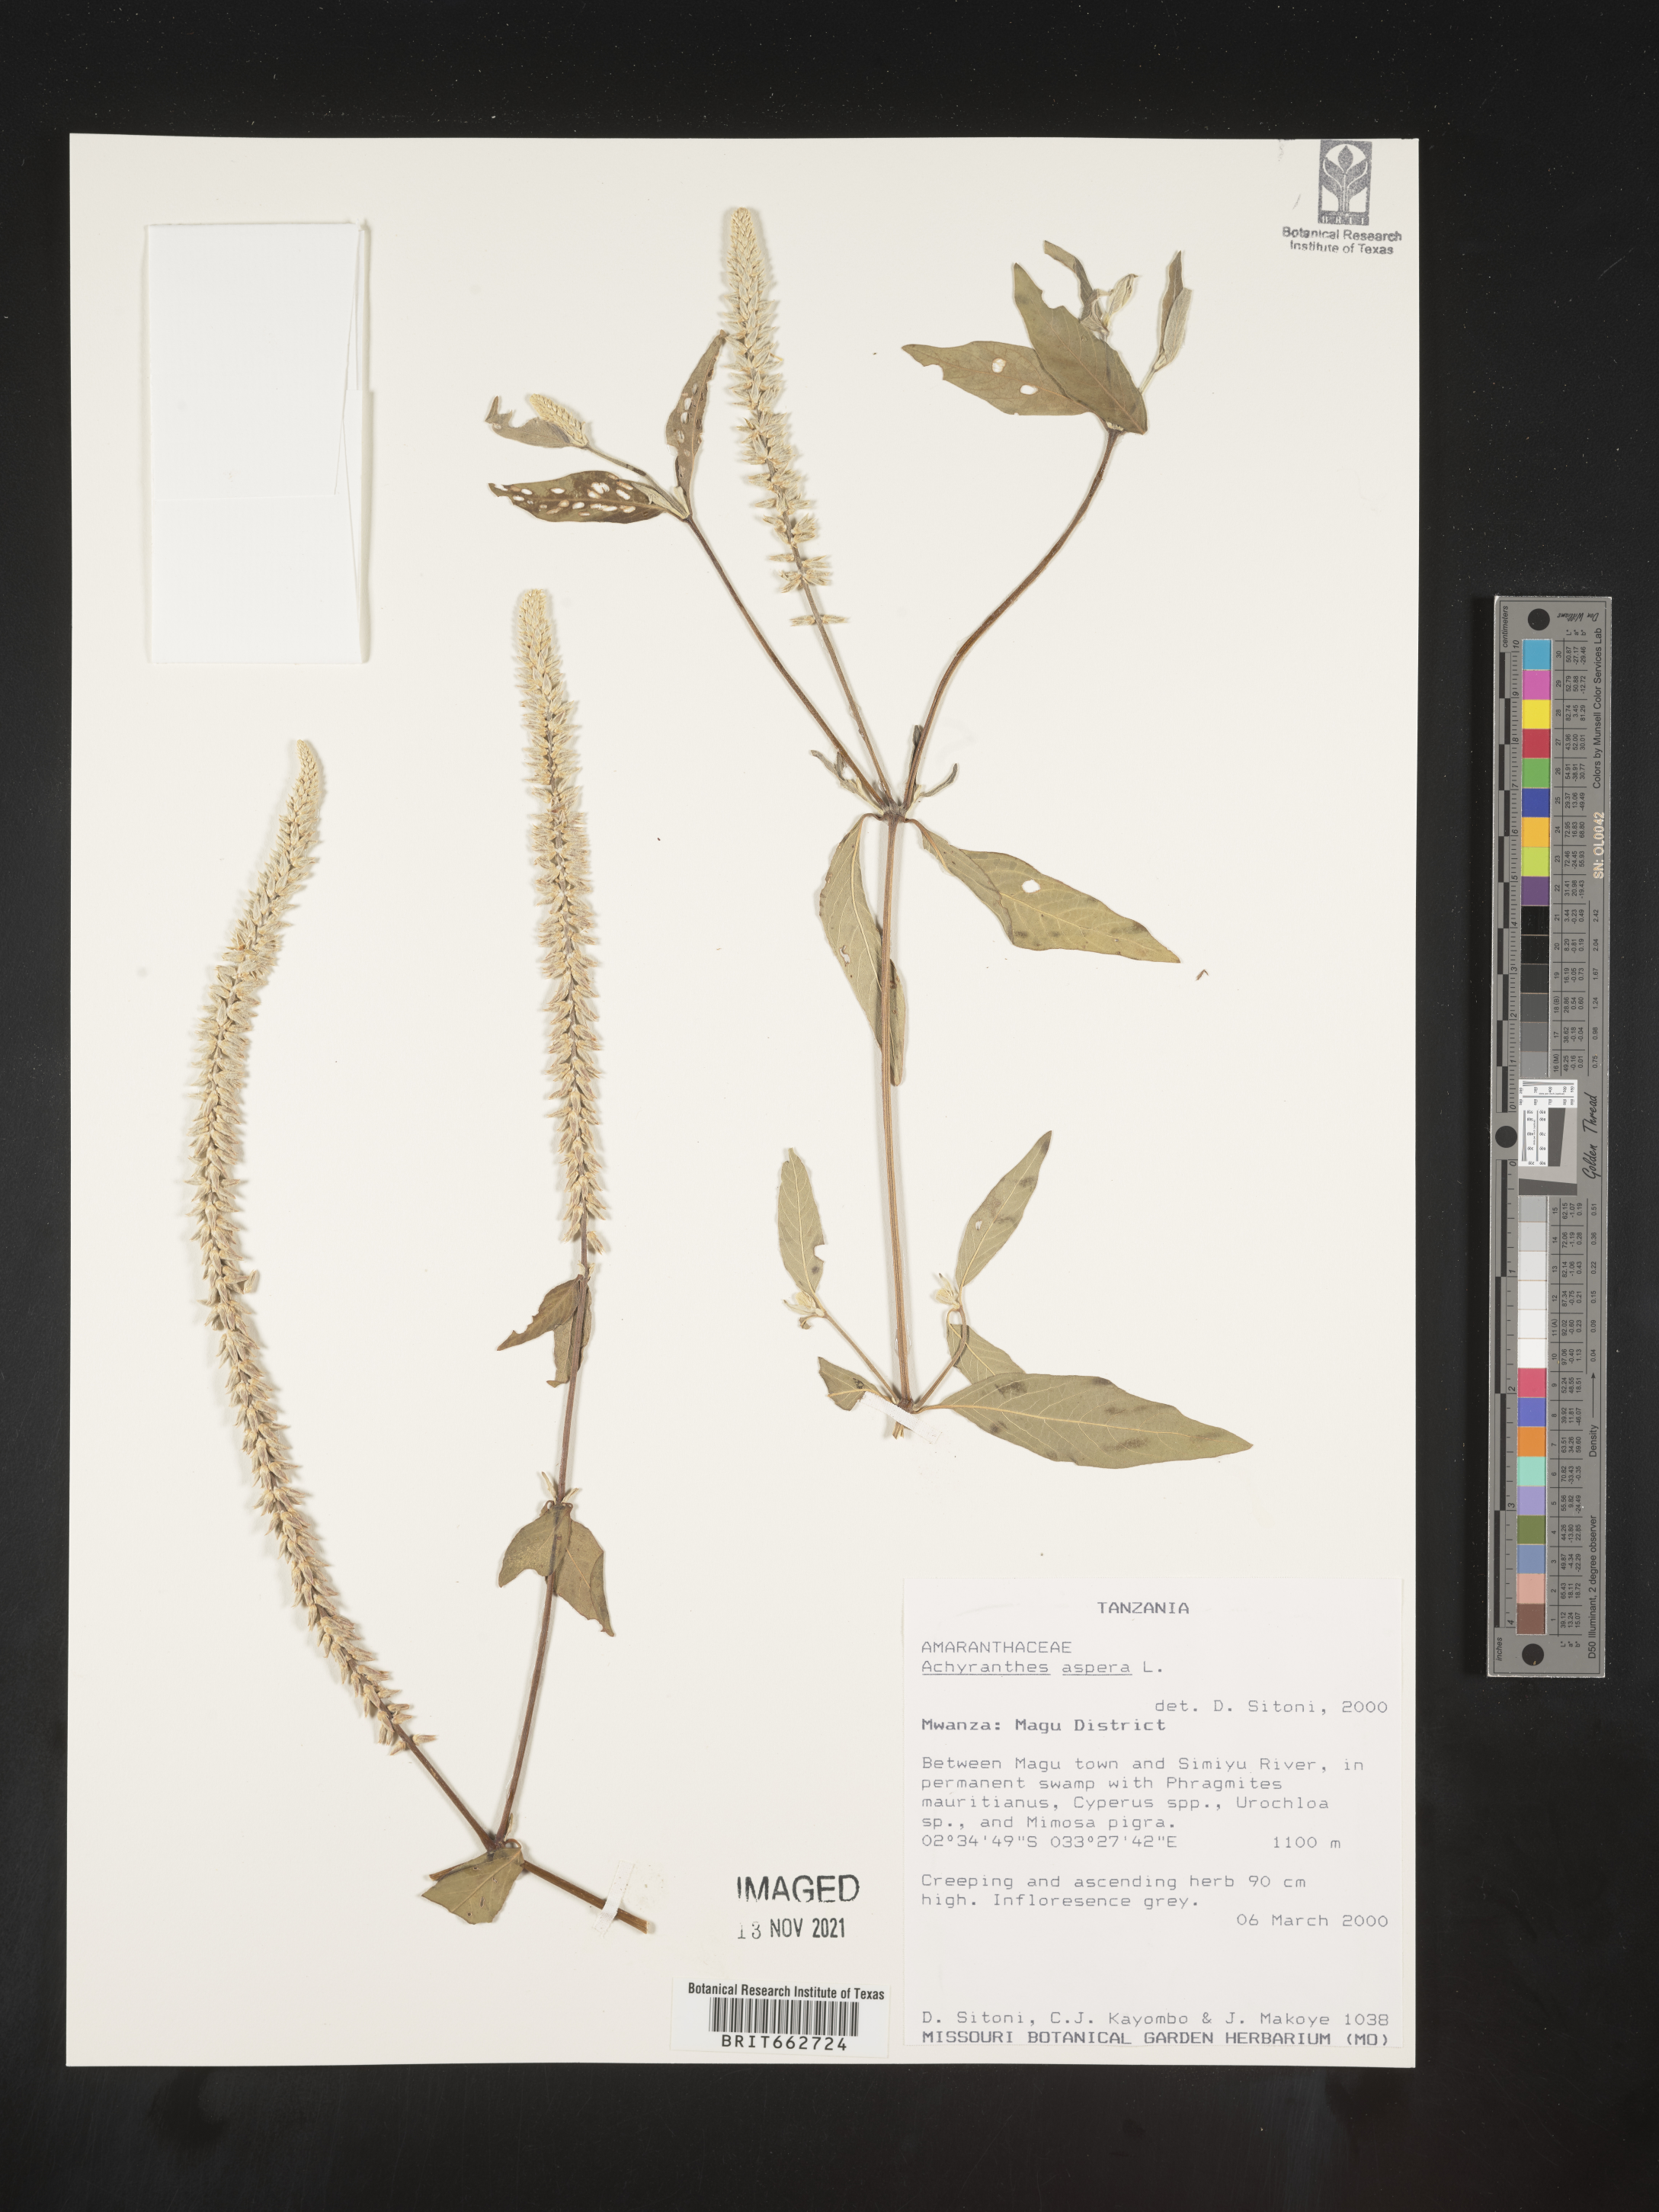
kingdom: Plantae
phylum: Tracheophyta
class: Magnoliopsida
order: Caryophyllales
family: Amaranthaceae
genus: Achyranthes
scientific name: Achyranthes
